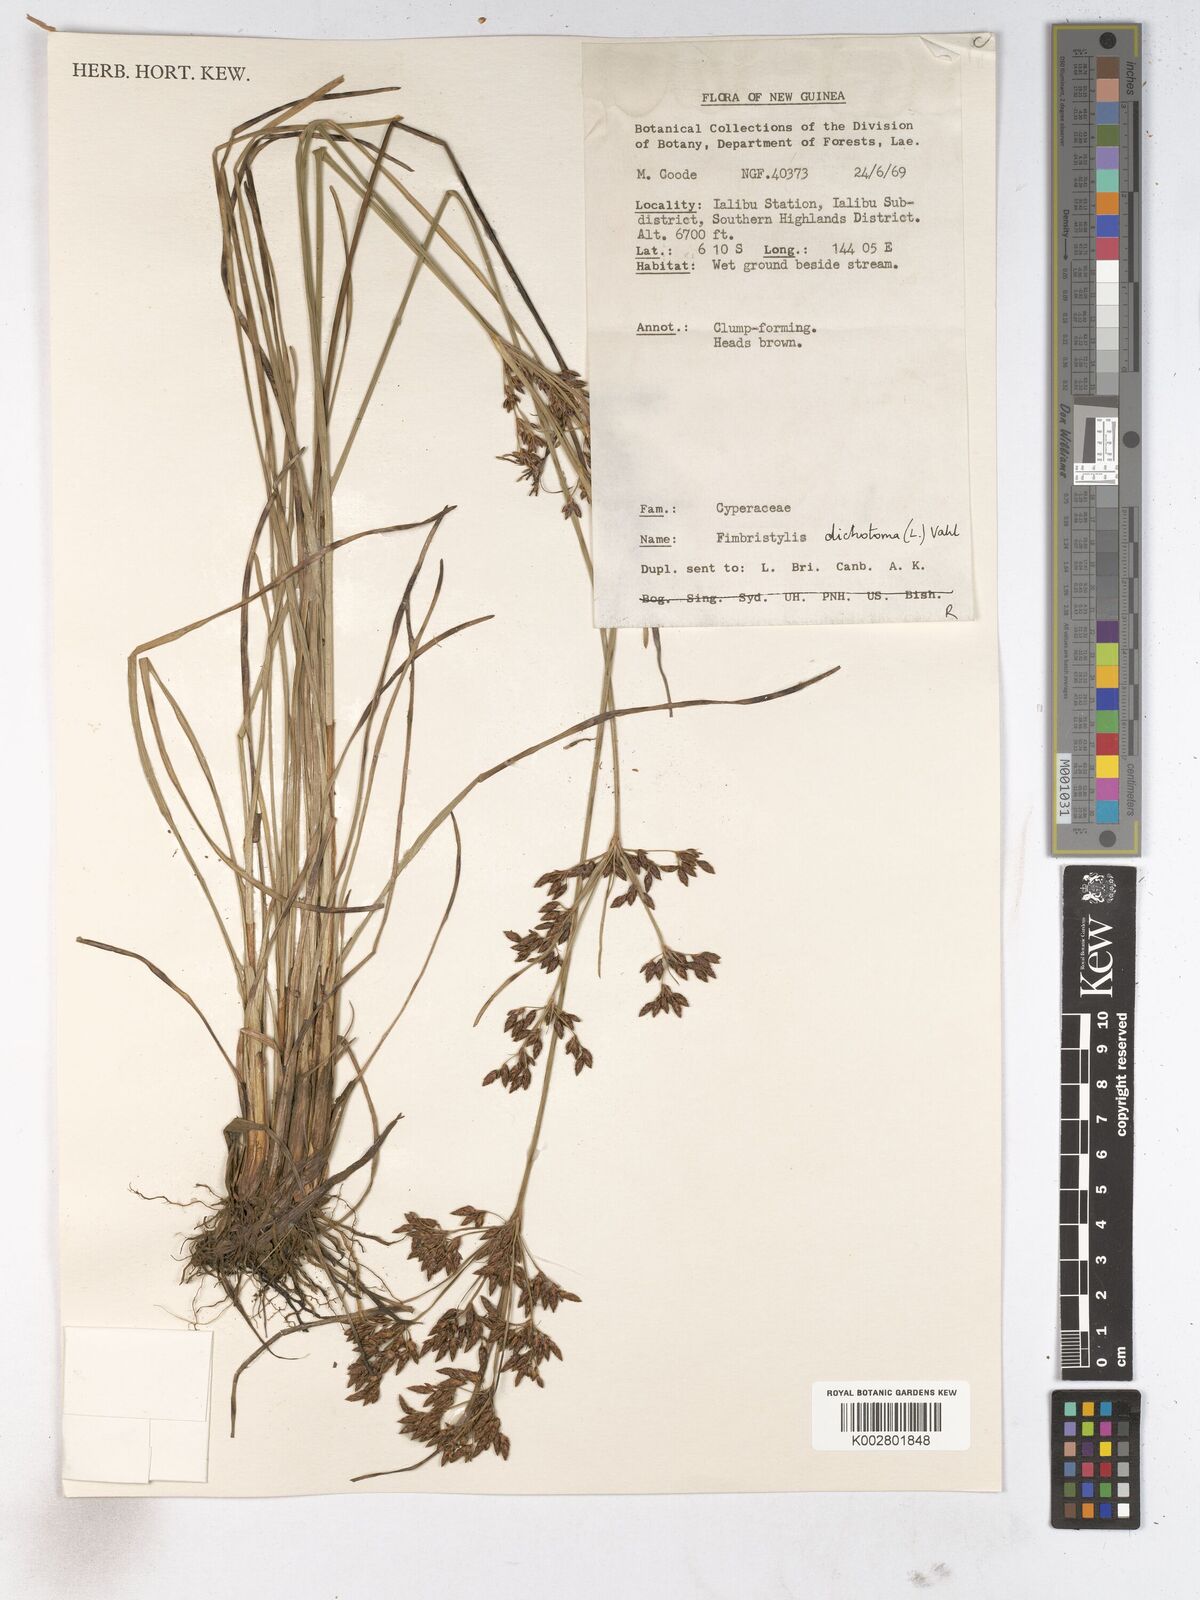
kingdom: Plantae
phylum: Tracheophyta
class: Liliopsida
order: Poales
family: Cyperaceae
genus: Fimbristylis
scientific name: Fimbristylis dichotoma
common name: Forked fimbry
